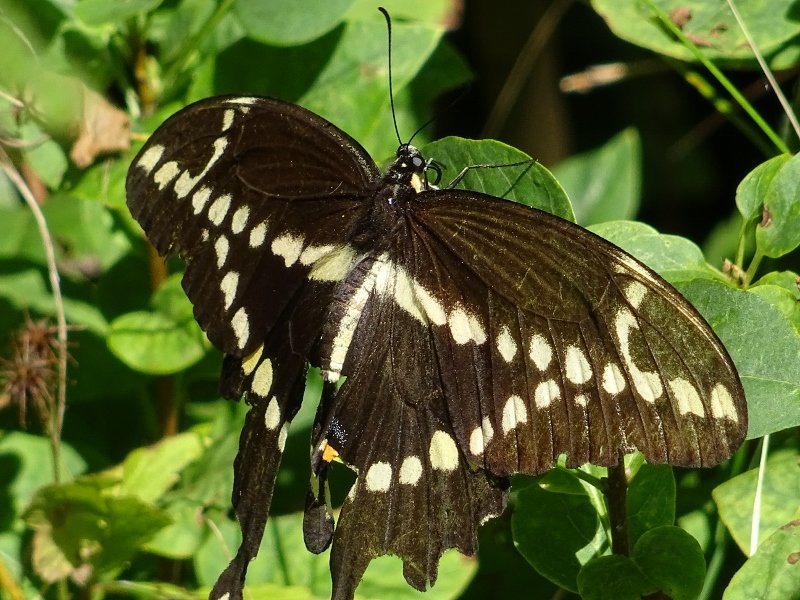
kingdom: Animalia
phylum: Arthropoda
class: Insecta
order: Lepidoptera
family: Papilionidae
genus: Papilio
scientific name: Papilio cresphontes
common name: Eastern Giant Swallowtail
